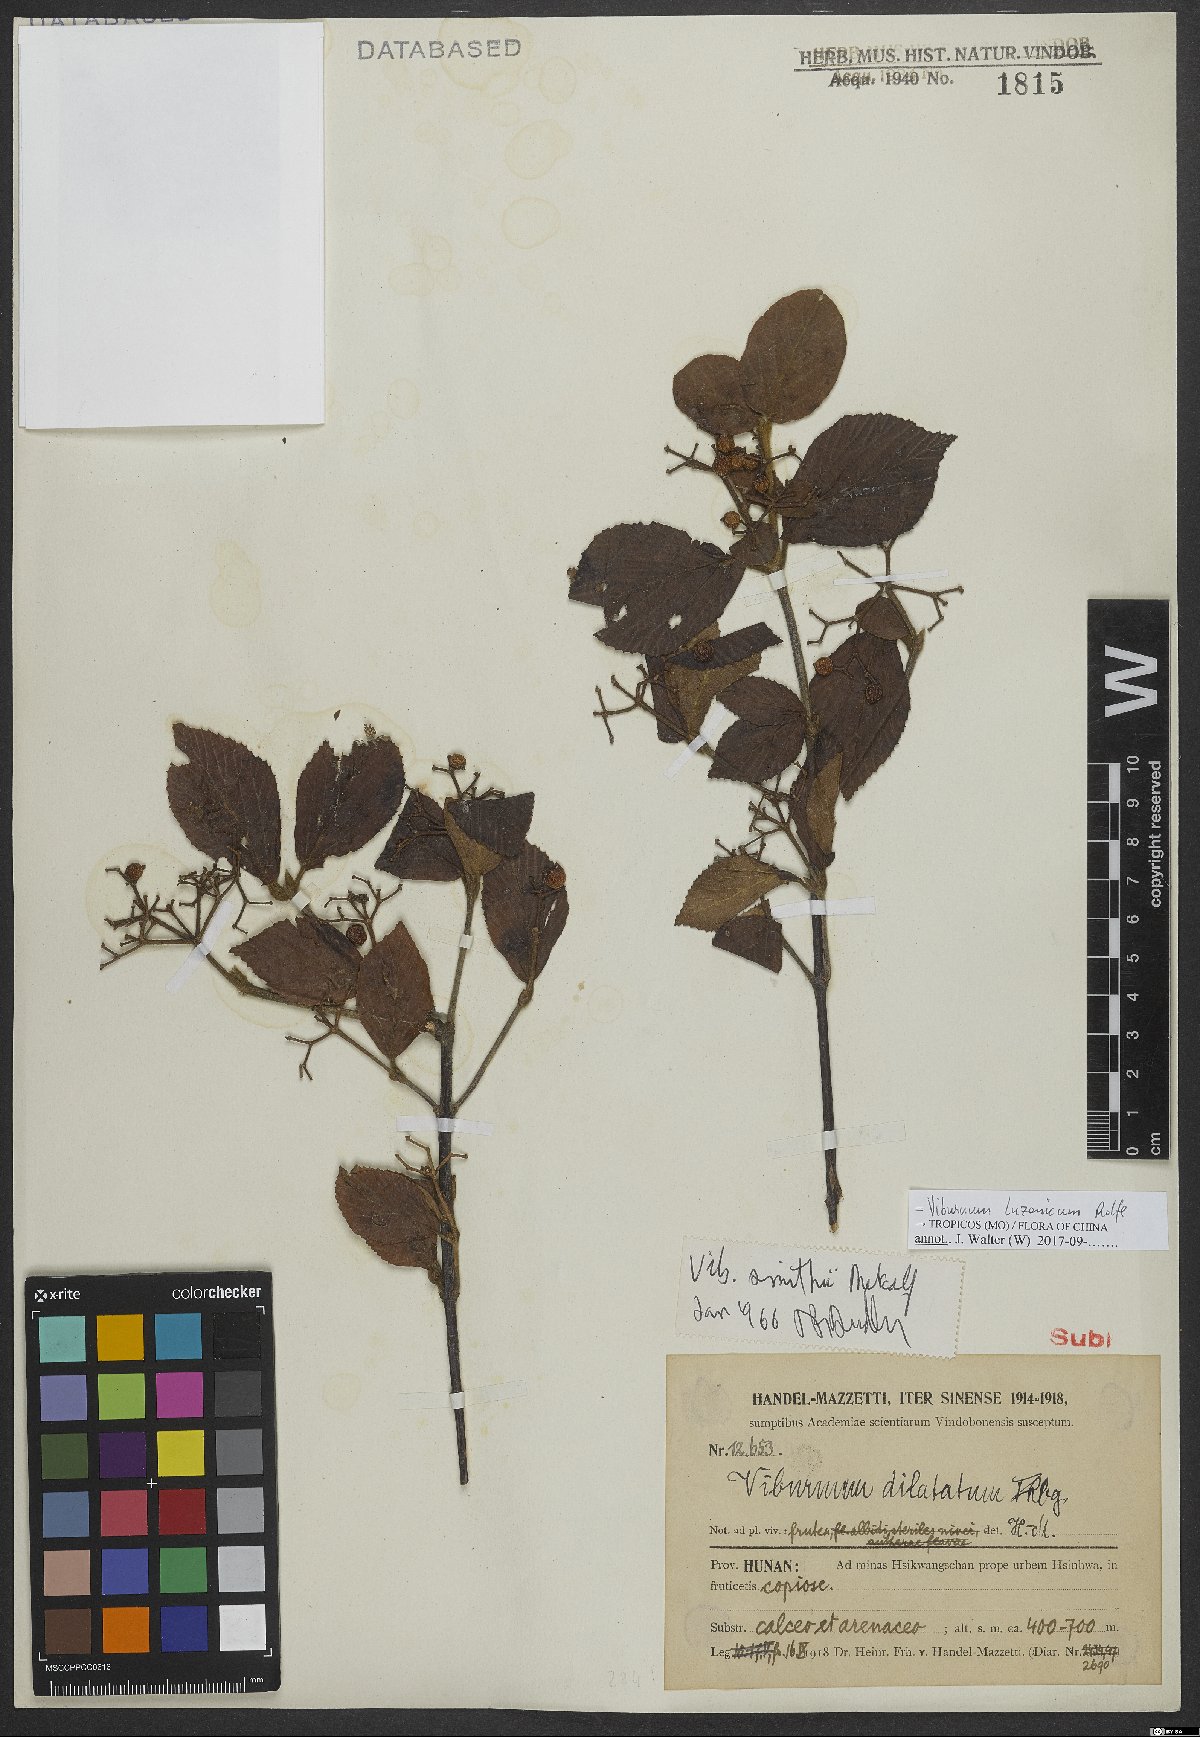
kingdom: Plantae
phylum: Tracheophyta
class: Magnoliopsida
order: Dipsacales
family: Viburnaceae
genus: Viburnum
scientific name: Viburnum luzonicum
